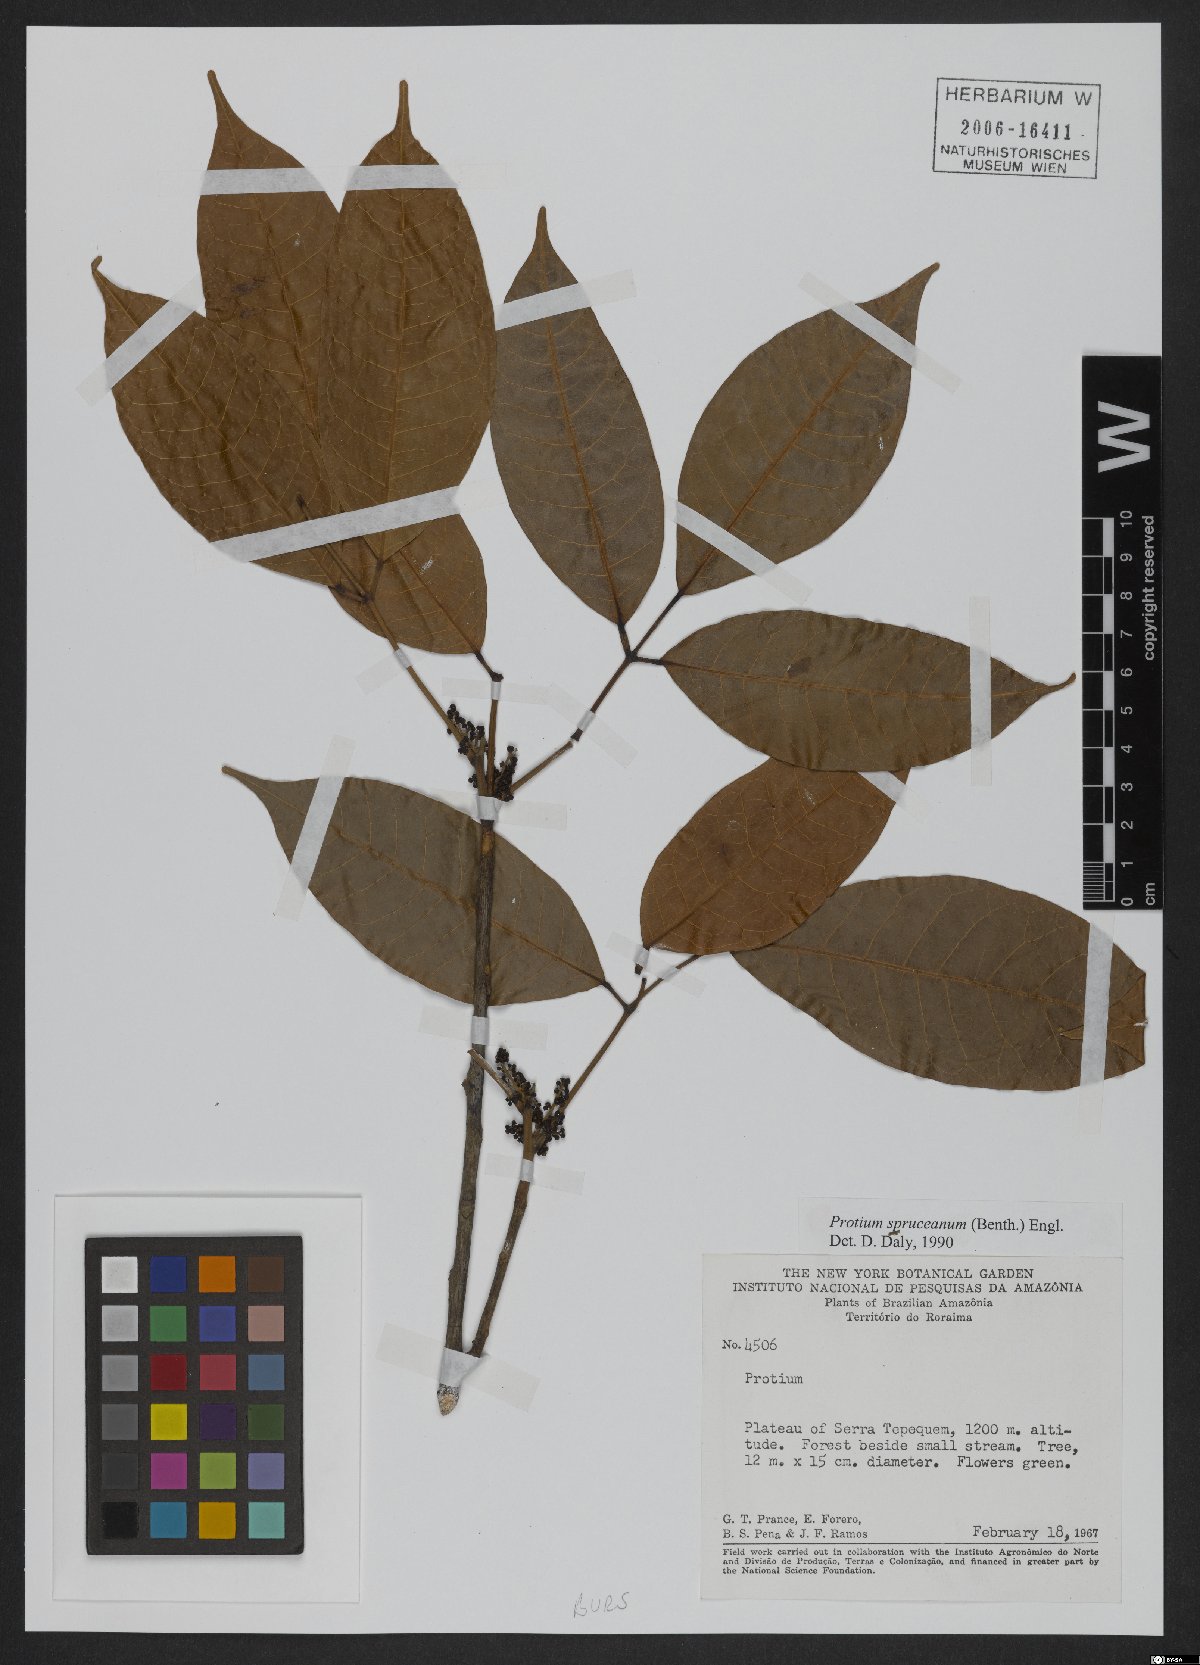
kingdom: Plantae
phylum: Tracheophyta
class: Magnoliopsida
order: Sapindales
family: Burseraceae
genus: Protium
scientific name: Protium spruceanum
